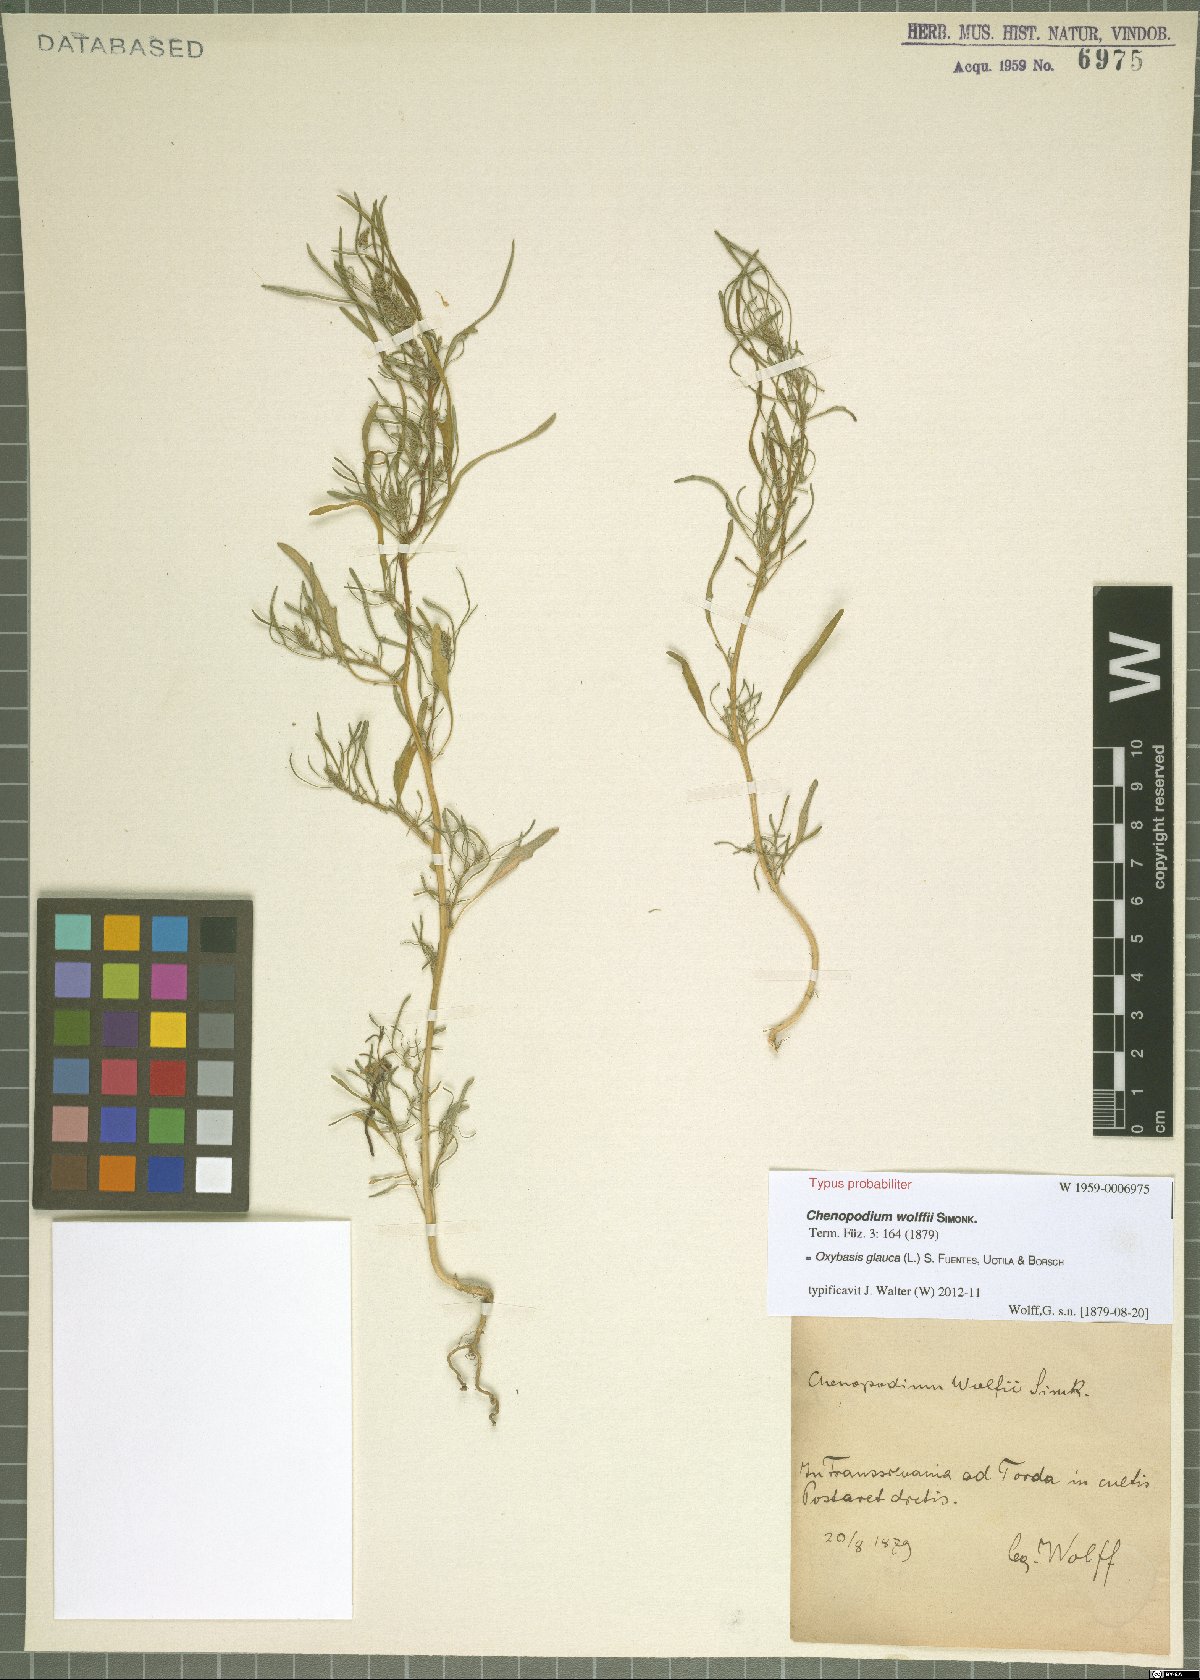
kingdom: Plantae
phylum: Tracheophyta
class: Magnoliopsida
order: Caryophyllales
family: Amaranthaceae
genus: Oxybasis
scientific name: Oxybasis glauca
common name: Glaucous goosefoot
